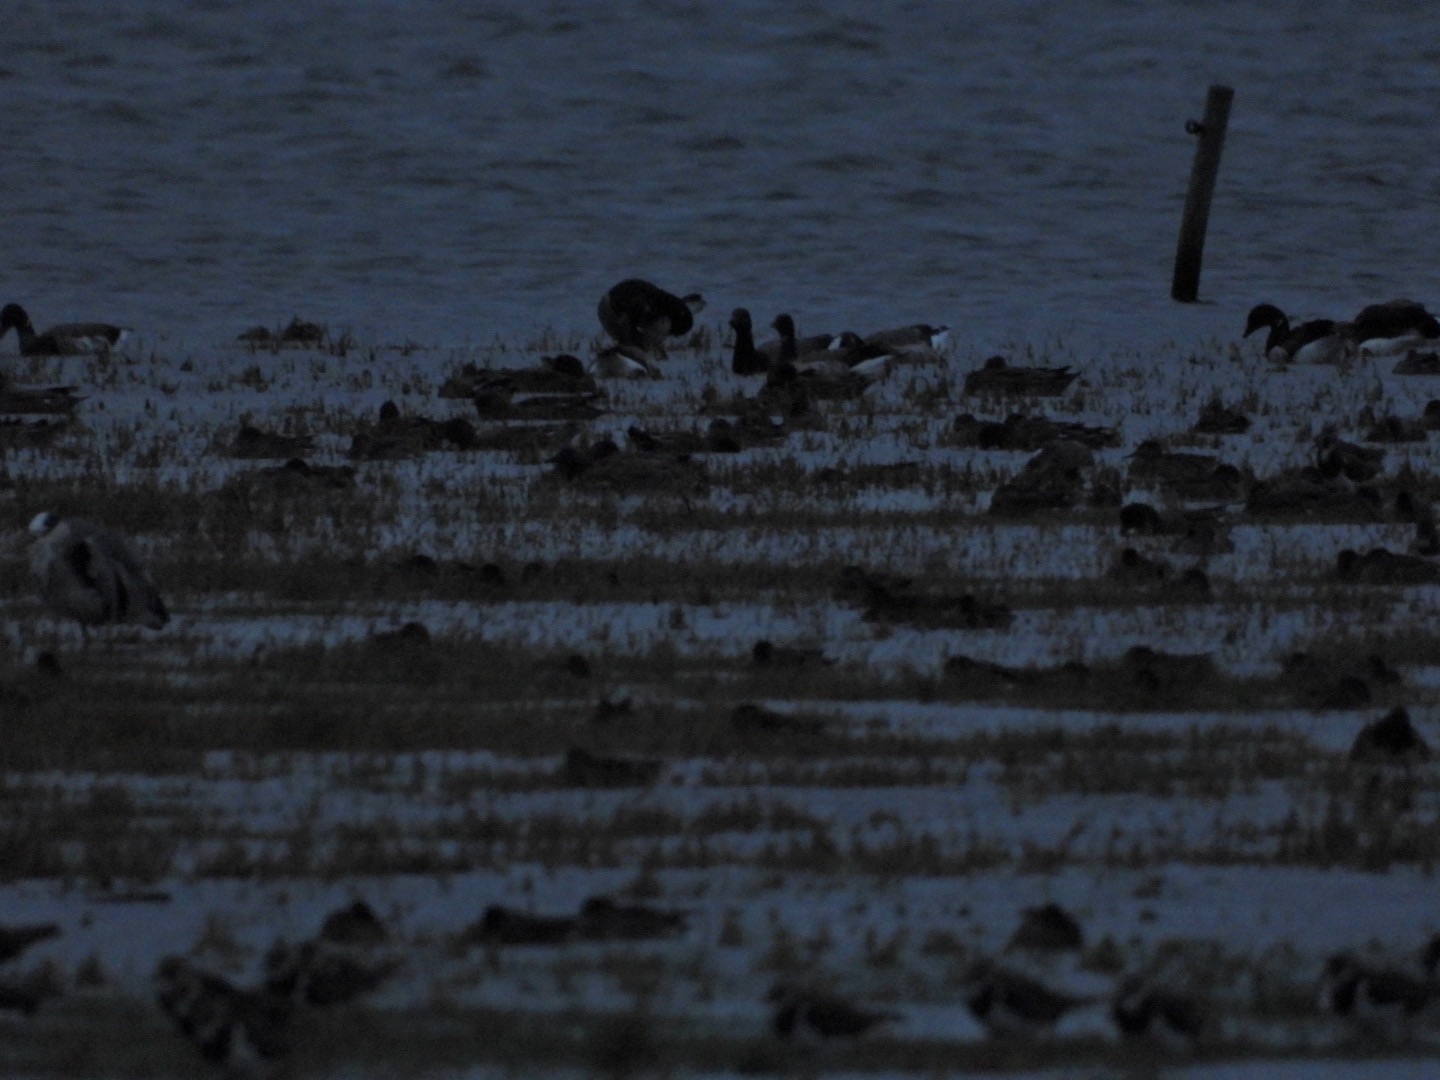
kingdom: Animalia
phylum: Chordata
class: Aves
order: Anseriformes
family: Anatidae
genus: Branta
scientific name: Branta bernicla
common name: Lysbuget knortegås
